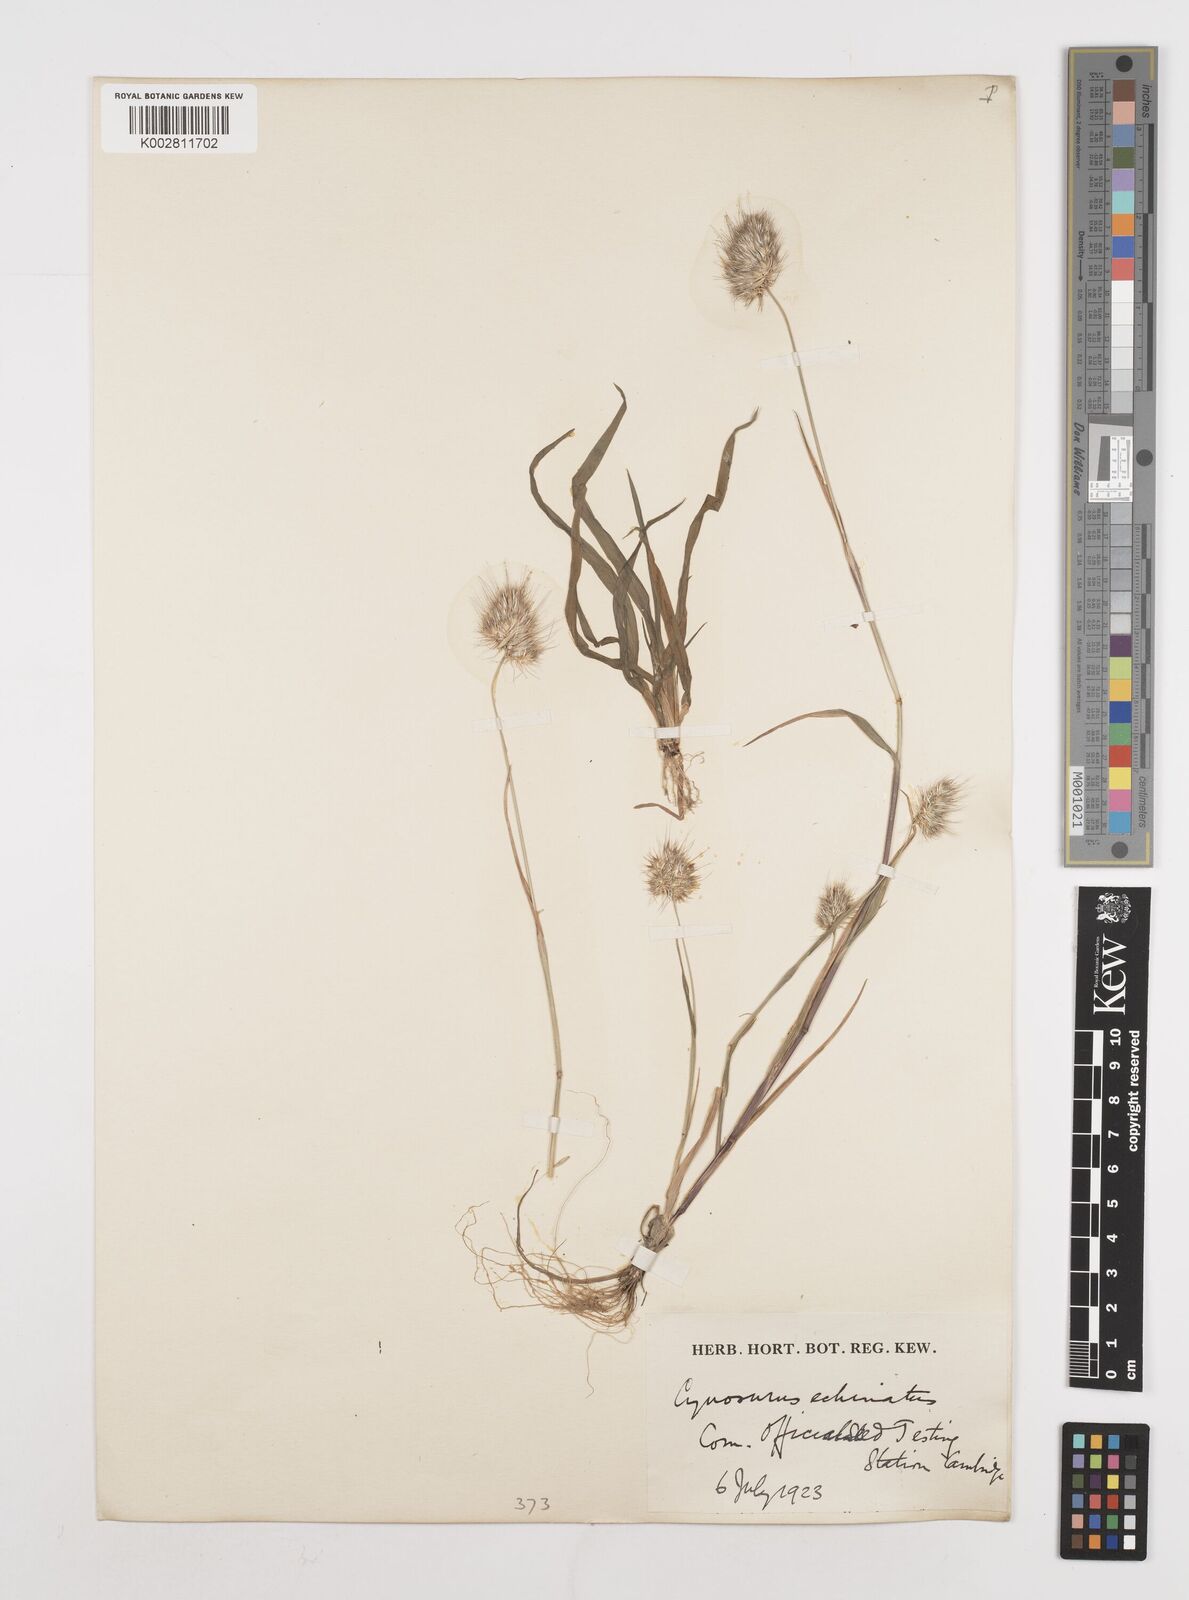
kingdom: Plantae
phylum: Tracheophyta
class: Liliopsida
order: Poales
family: Poaceae
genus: Cynosurus
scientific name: Cynosurus echinatus
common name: Rough dog's-tail
